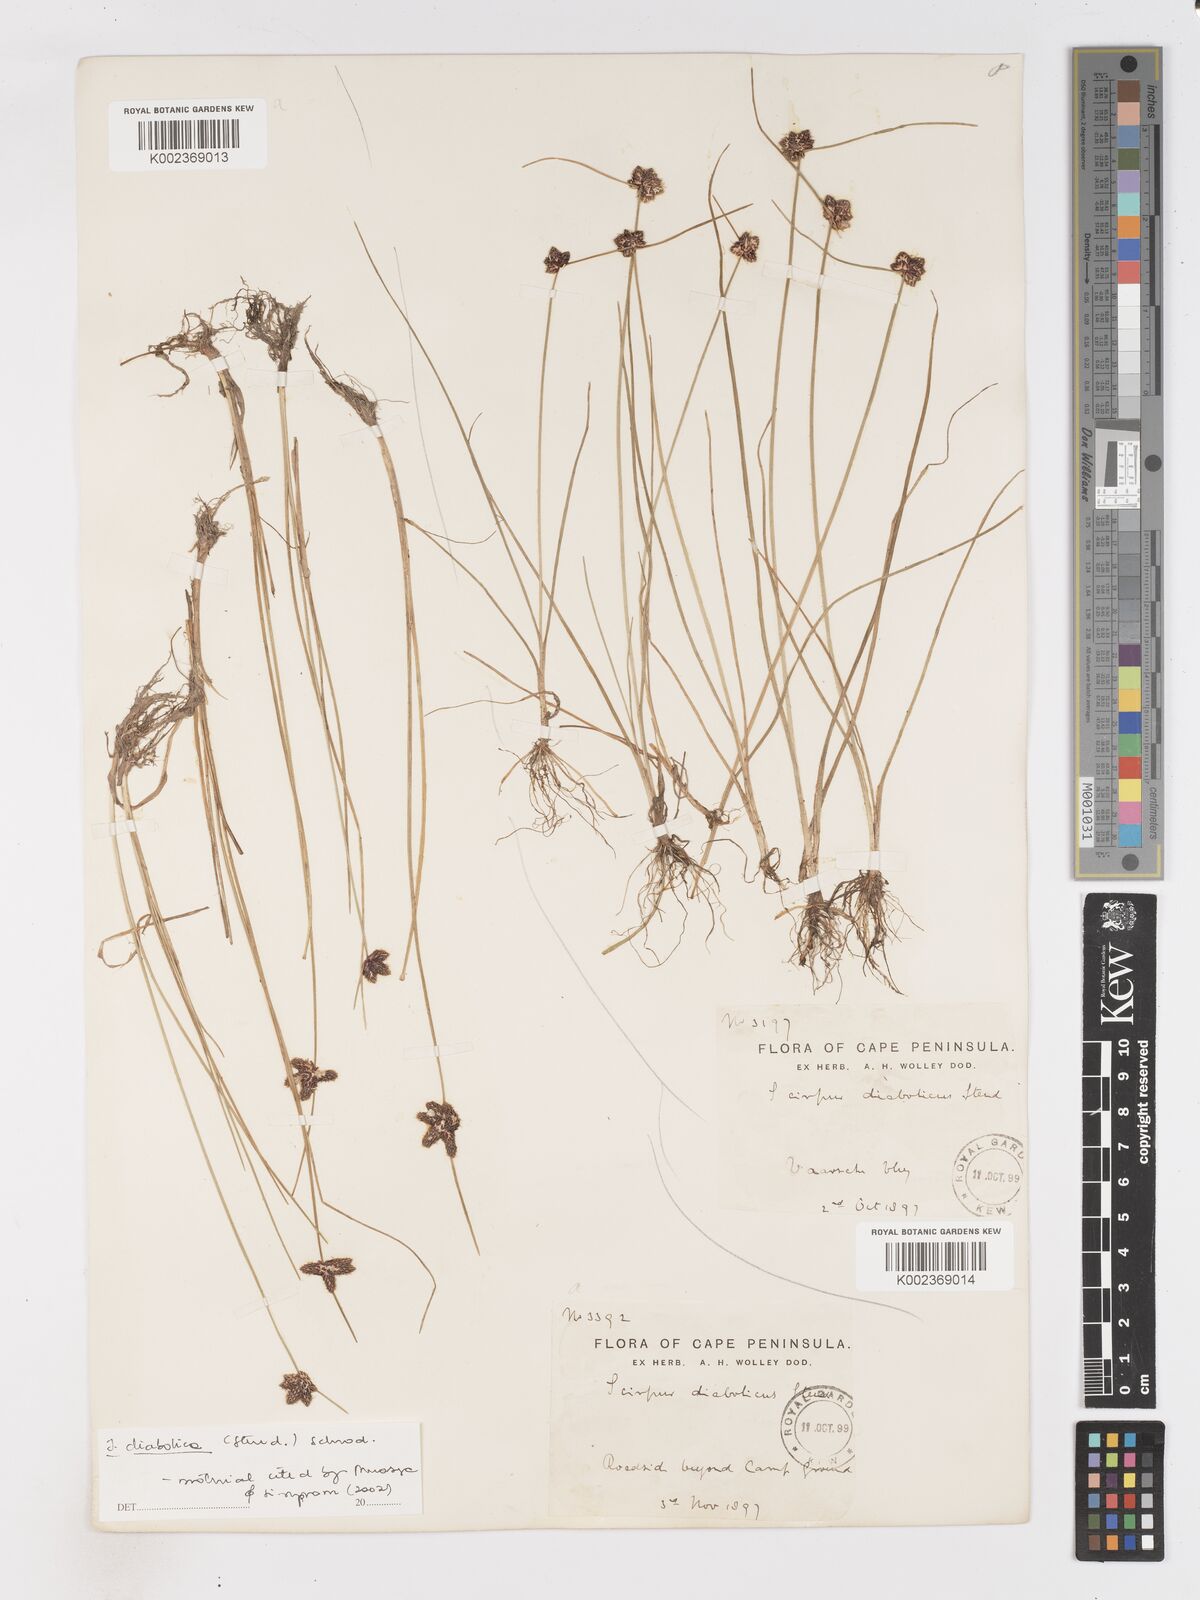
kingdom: Plantae
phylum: Tracheophyta
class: Liliopsida
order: Poales
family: Cyperaceae
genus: Isolepis
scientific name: Isolepis diabolica
